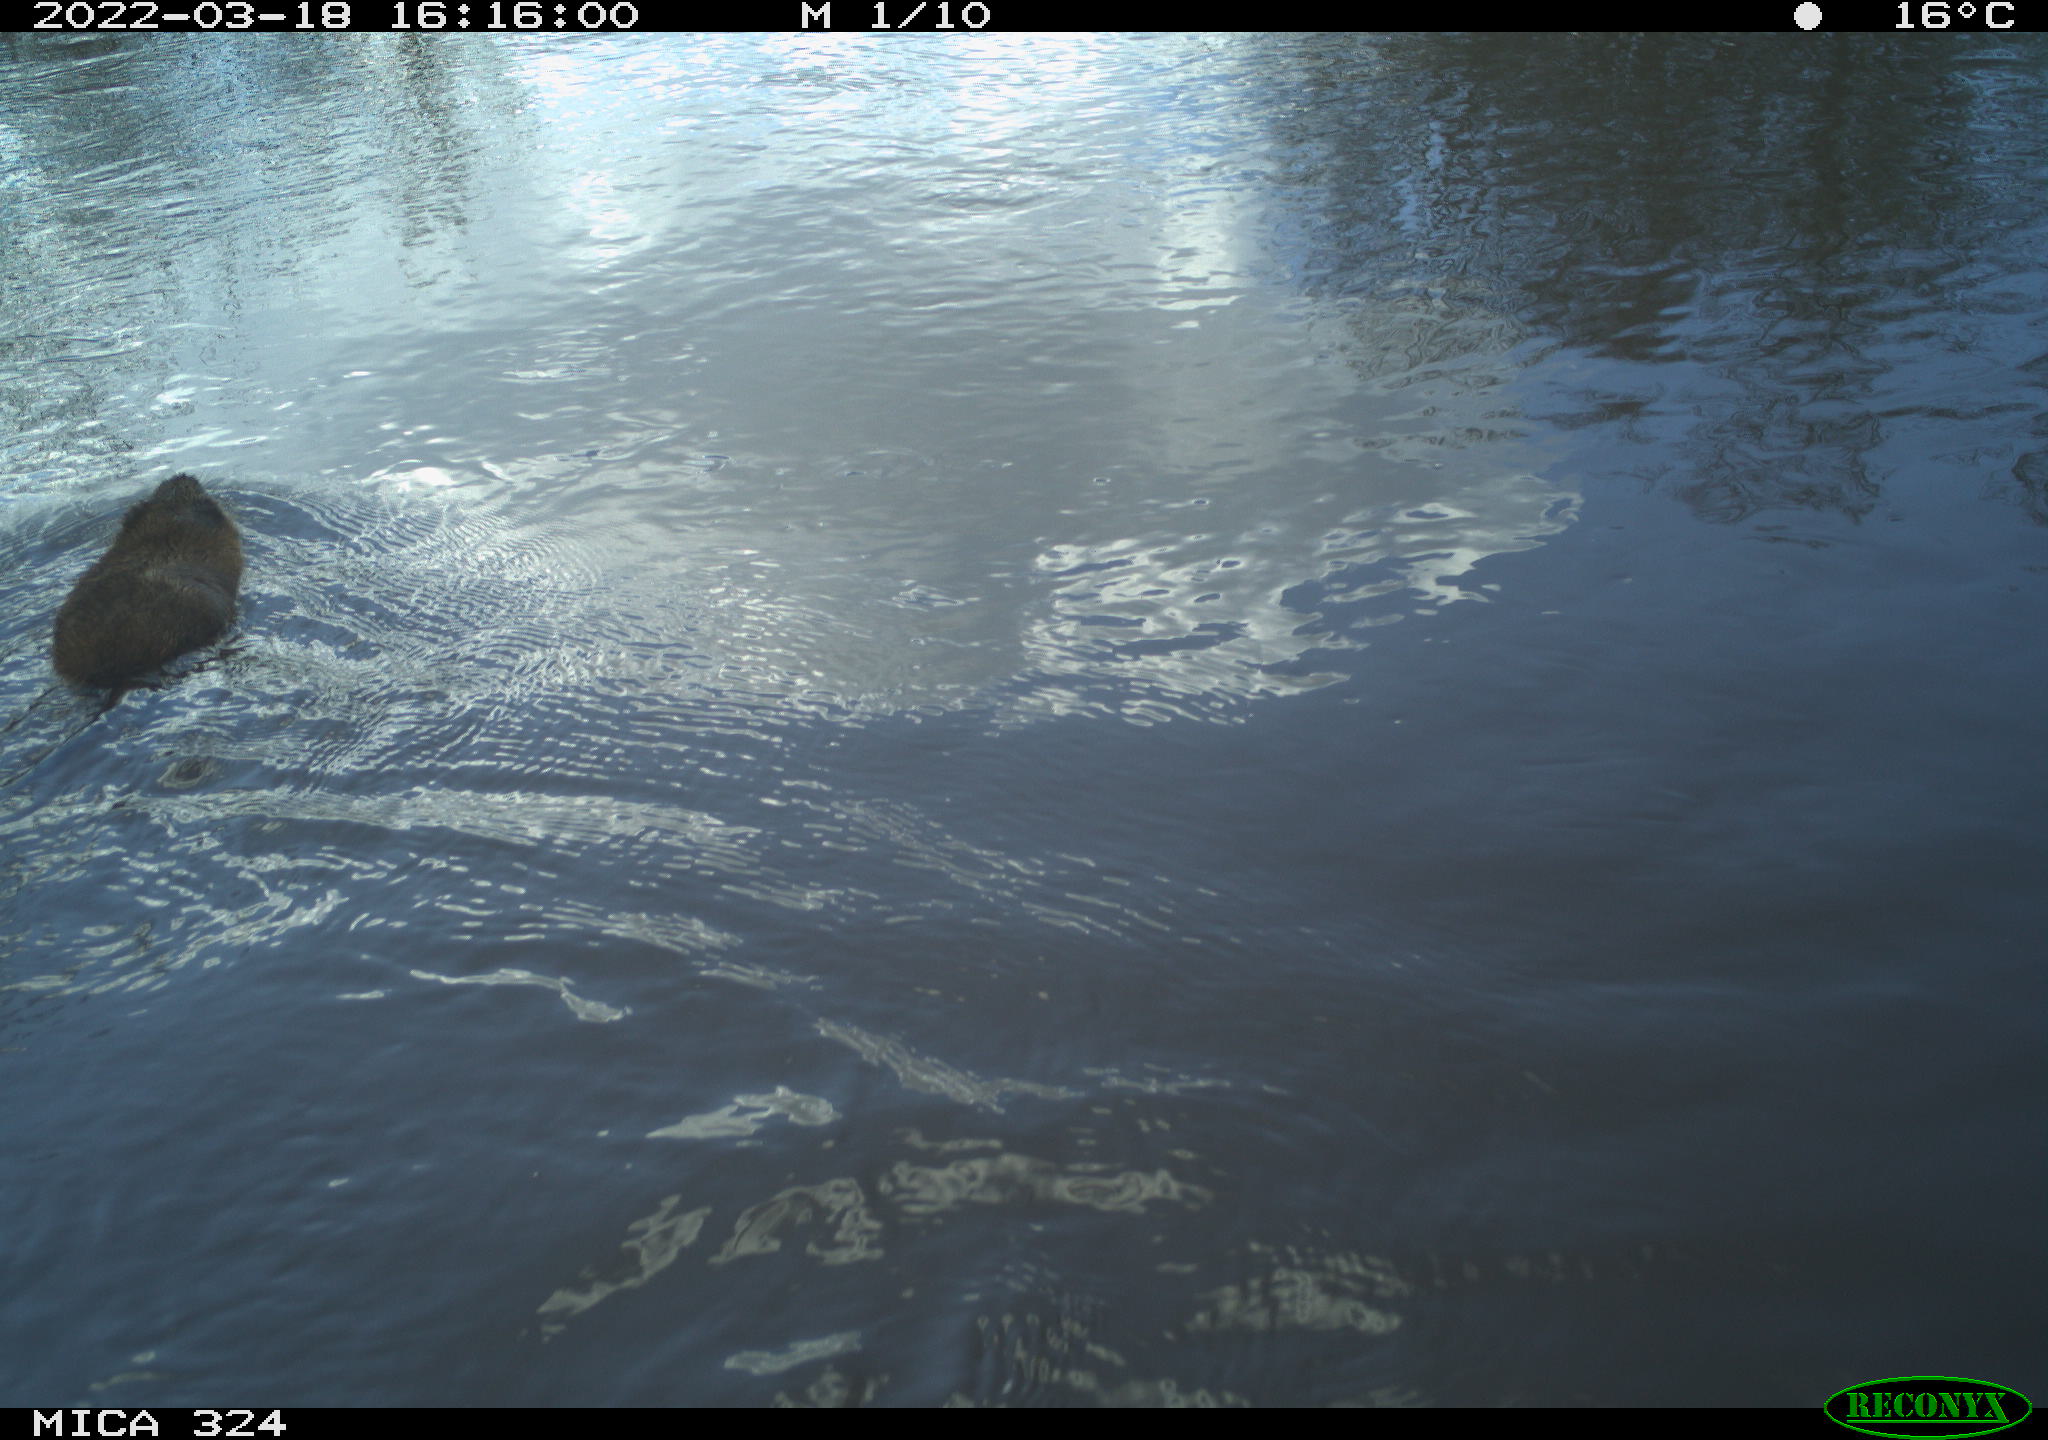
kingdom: Animalia
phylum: Chordata
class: Mammalia
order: Rodentia
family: Cricetidae
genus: Ondatra
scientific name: Ondatra zibethicus
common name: Muskrat
